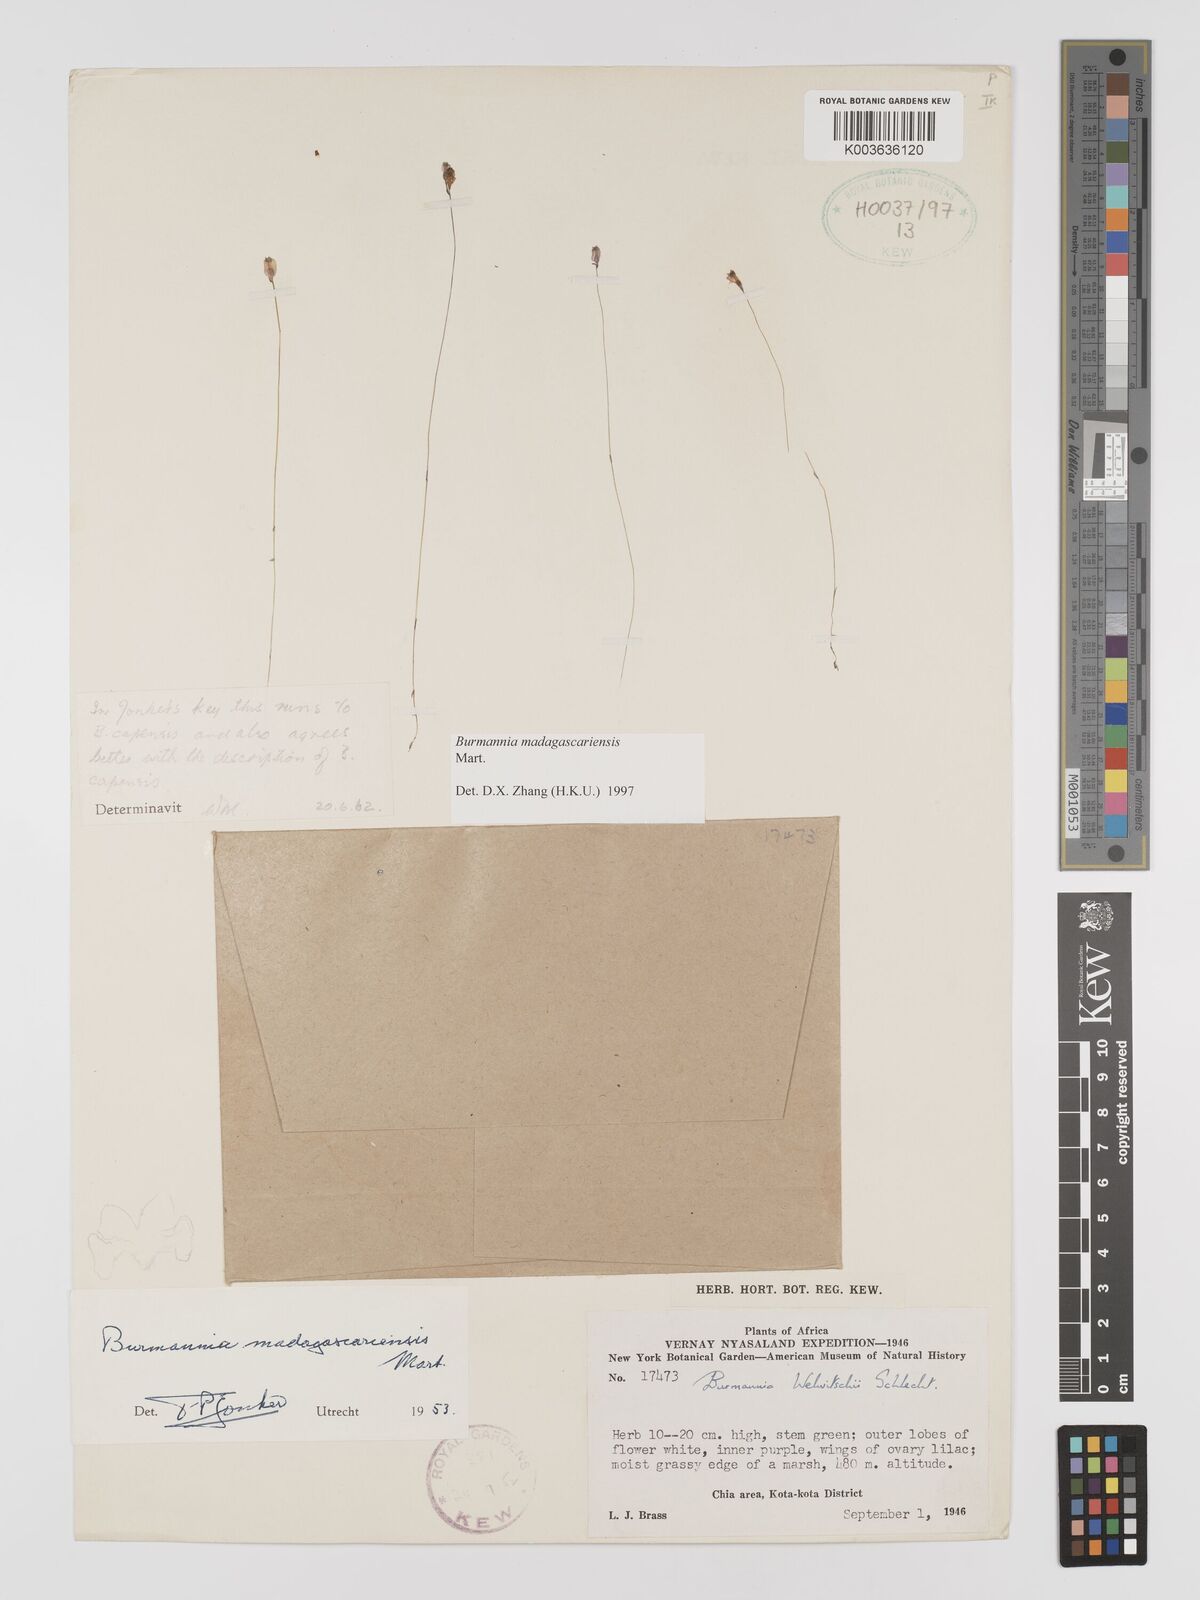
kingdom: Plantae
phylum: Tracheophyta
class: Liliopsida
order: Dioscoreales
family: Burmanniaceae
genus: Burmannia
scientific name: Burmannia madagascariensis
